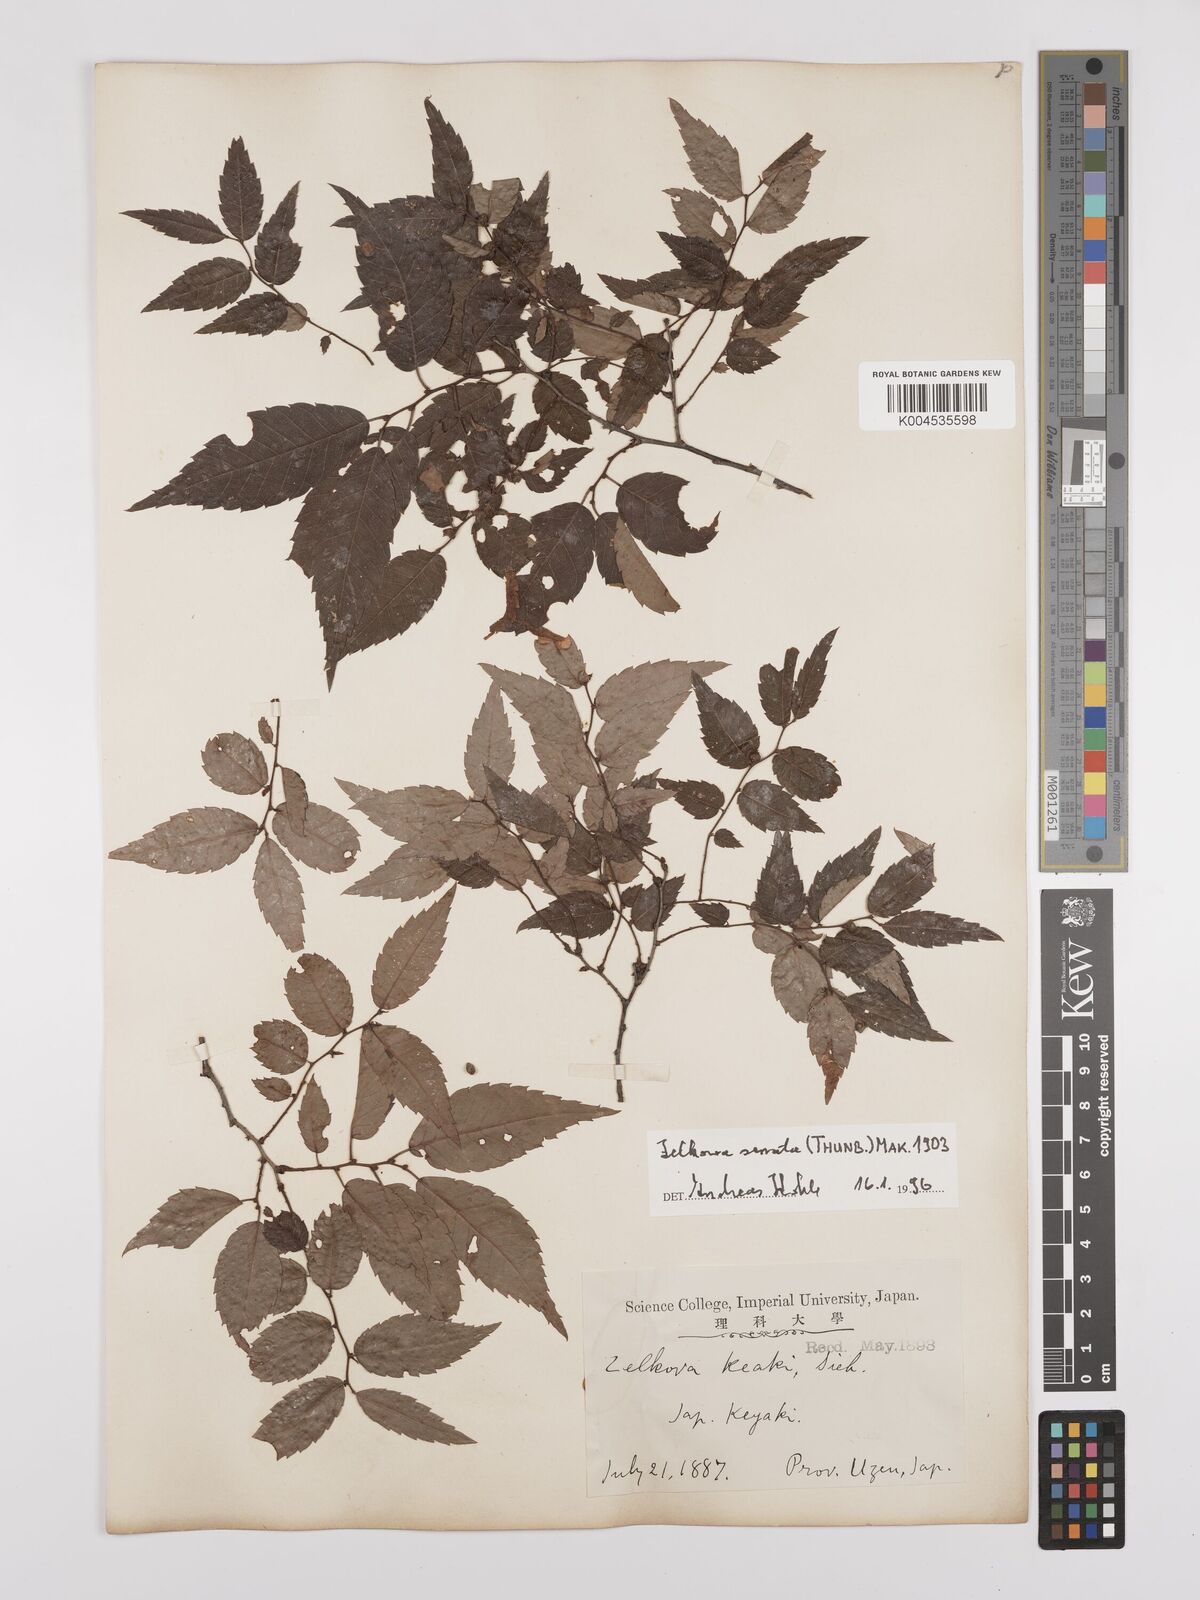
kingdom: Plantae
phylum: Tracheophyta
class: Magnoliopsida
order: Rosales
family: Ulmaceae
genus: Zelkova
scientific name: Zelkova serrata
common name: Japanese zelkova
